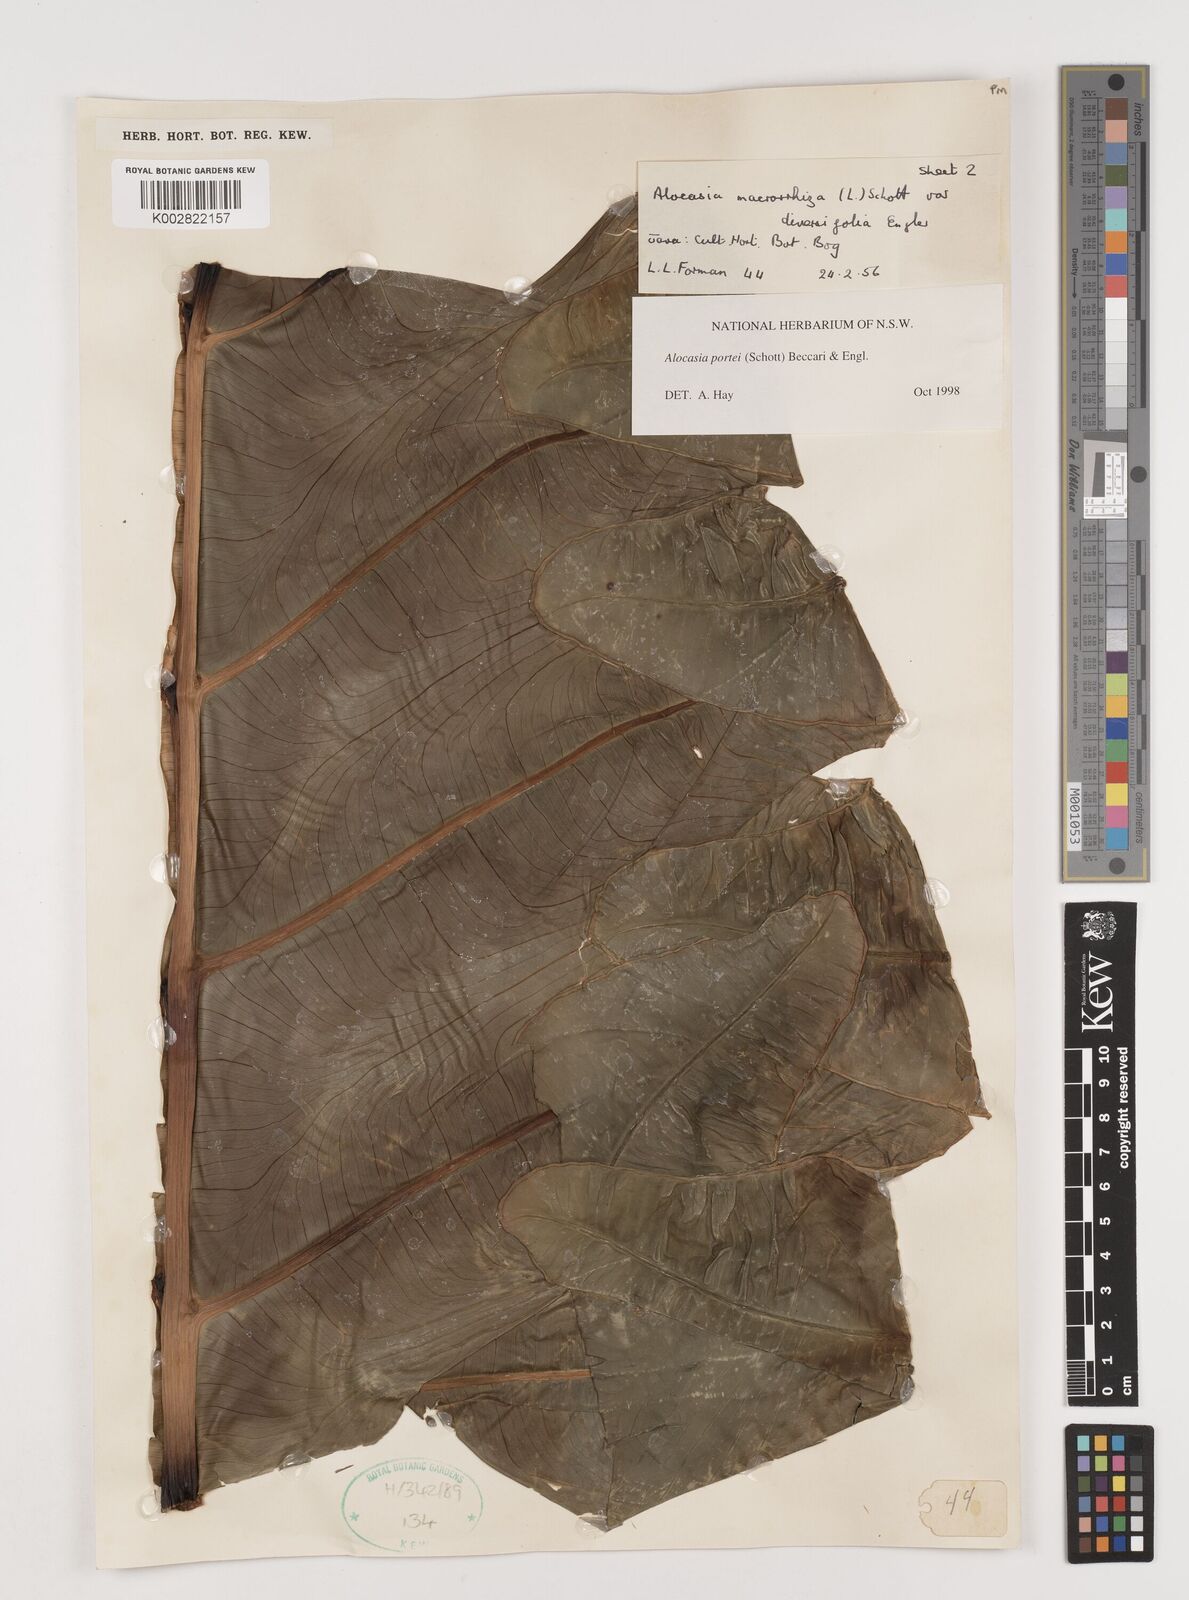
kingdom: Plantae
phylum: Tracheophyta
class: Liliopsida
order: Alismatales
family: Araceae
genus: Alocasia
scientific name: Alocasia portei
